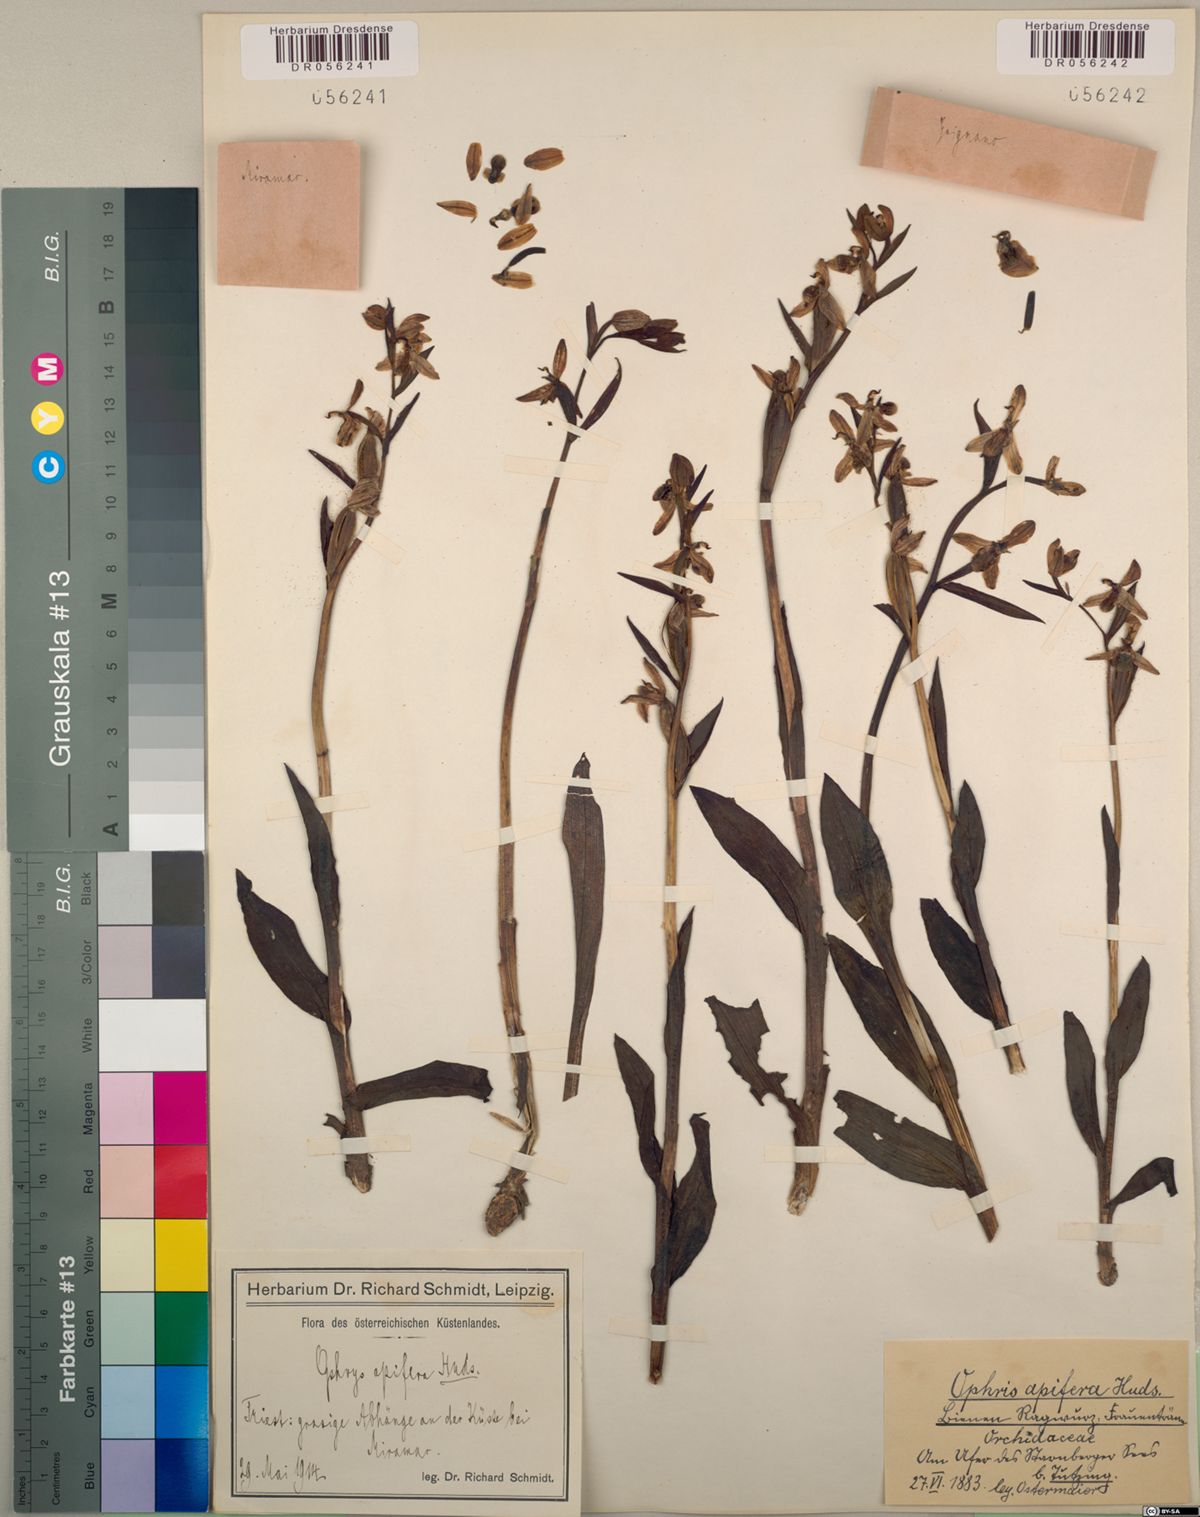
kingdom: Plantae
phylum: Tracheophyta
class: Liliopsida
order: Asparagales
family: Orchidaceae
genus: Ophrys
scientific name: Ophrys apifera
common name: Bee orchid
